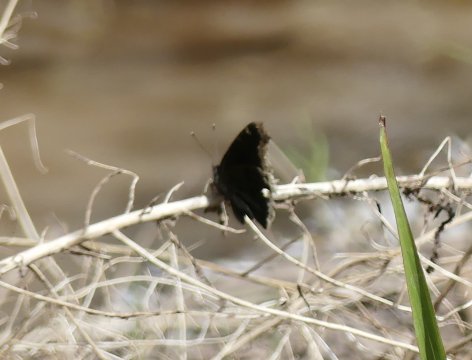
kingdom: Animalia
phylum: Arthropoda
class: Insecta
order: Lepidoptera
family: Nymphalidae
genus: Nymphalis
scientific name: Nymphalis antiopa
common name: Mourning Cloak
